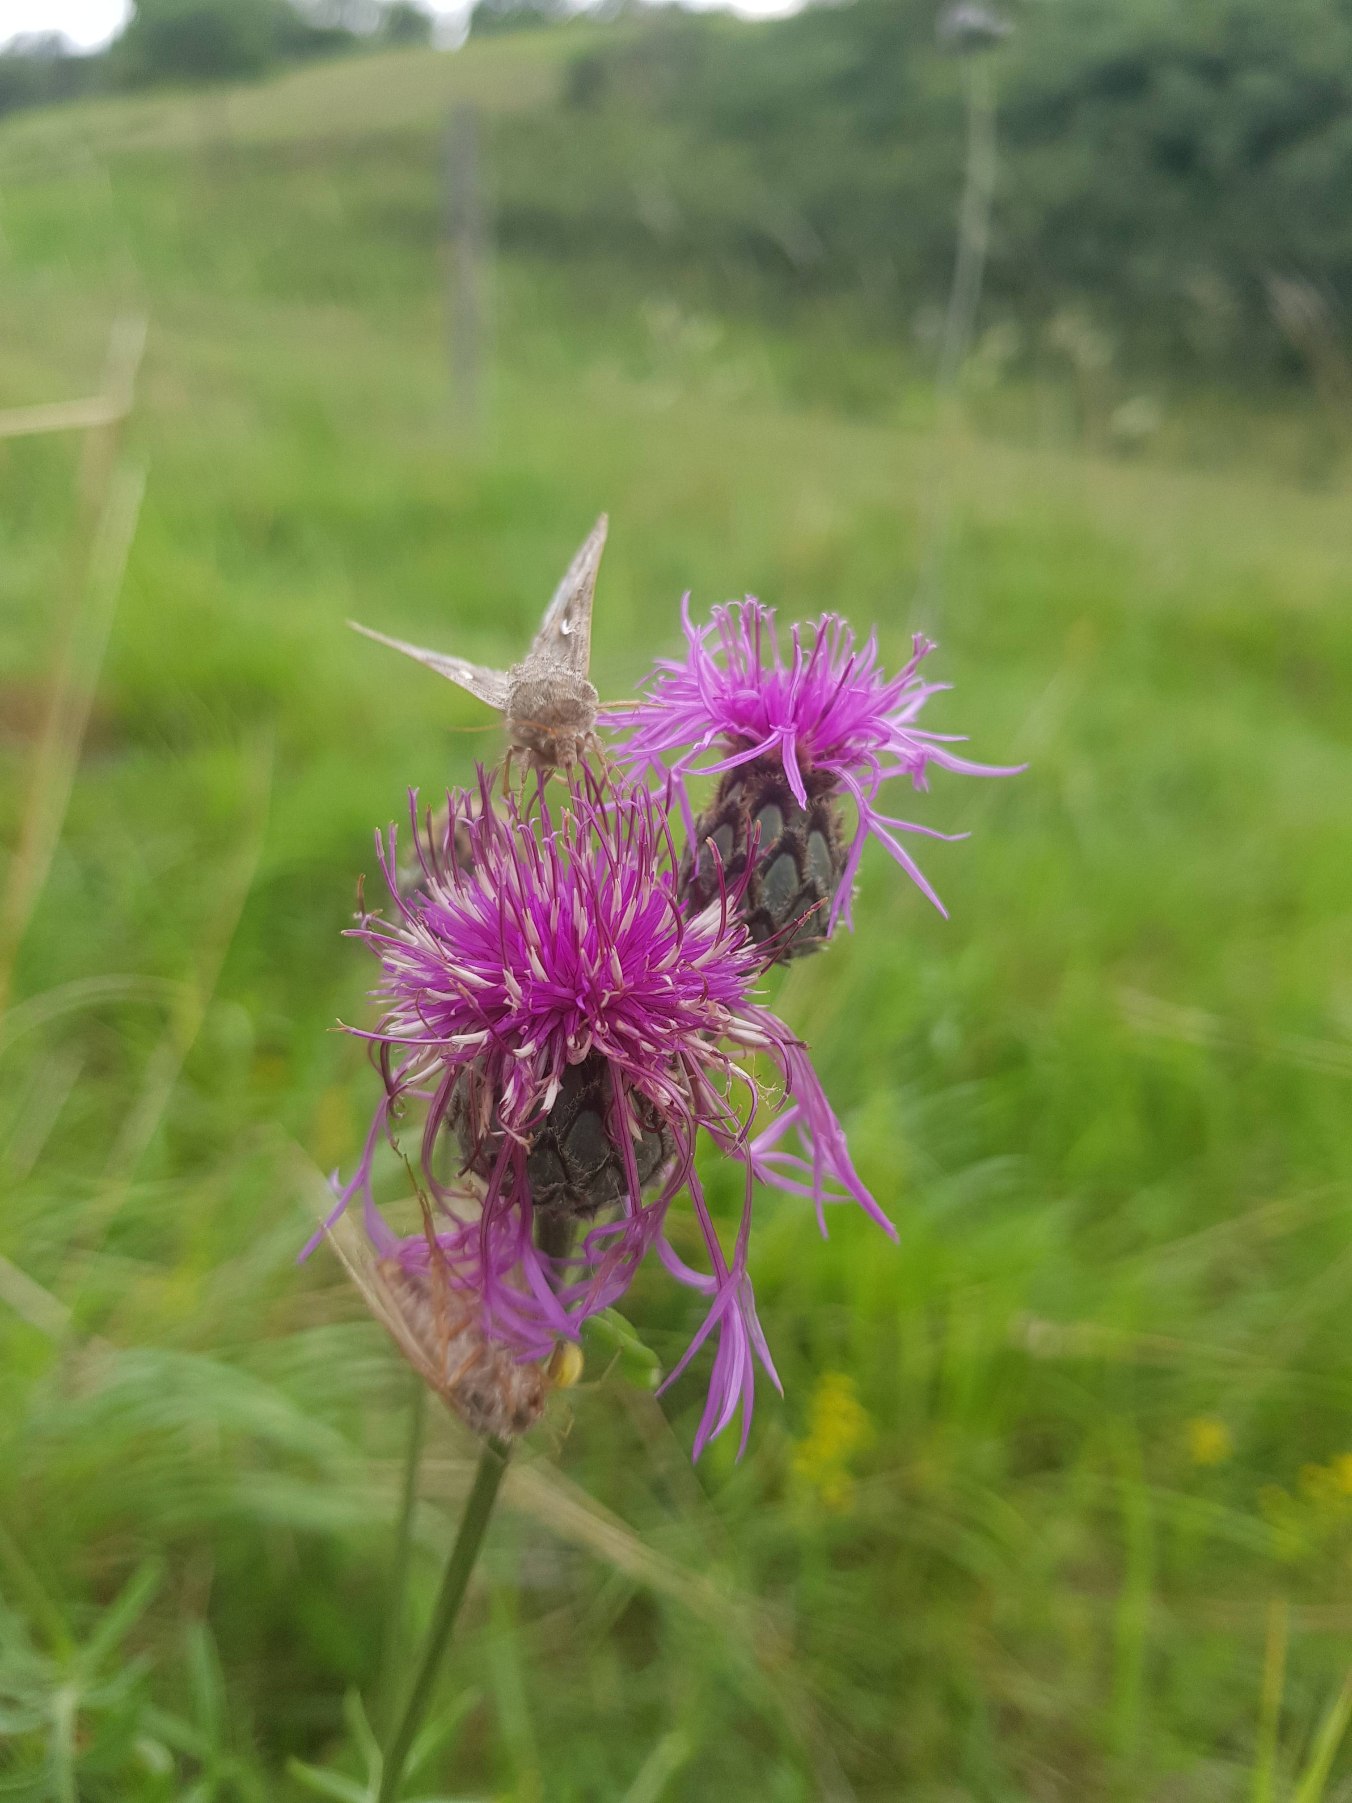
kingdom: Plantae
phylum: Tracheophyta
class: Magnoliopsida
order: Asterales
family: Asteraceae
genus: Centaurea
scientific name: Centaurea scabiosa
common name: Stor knopurt
